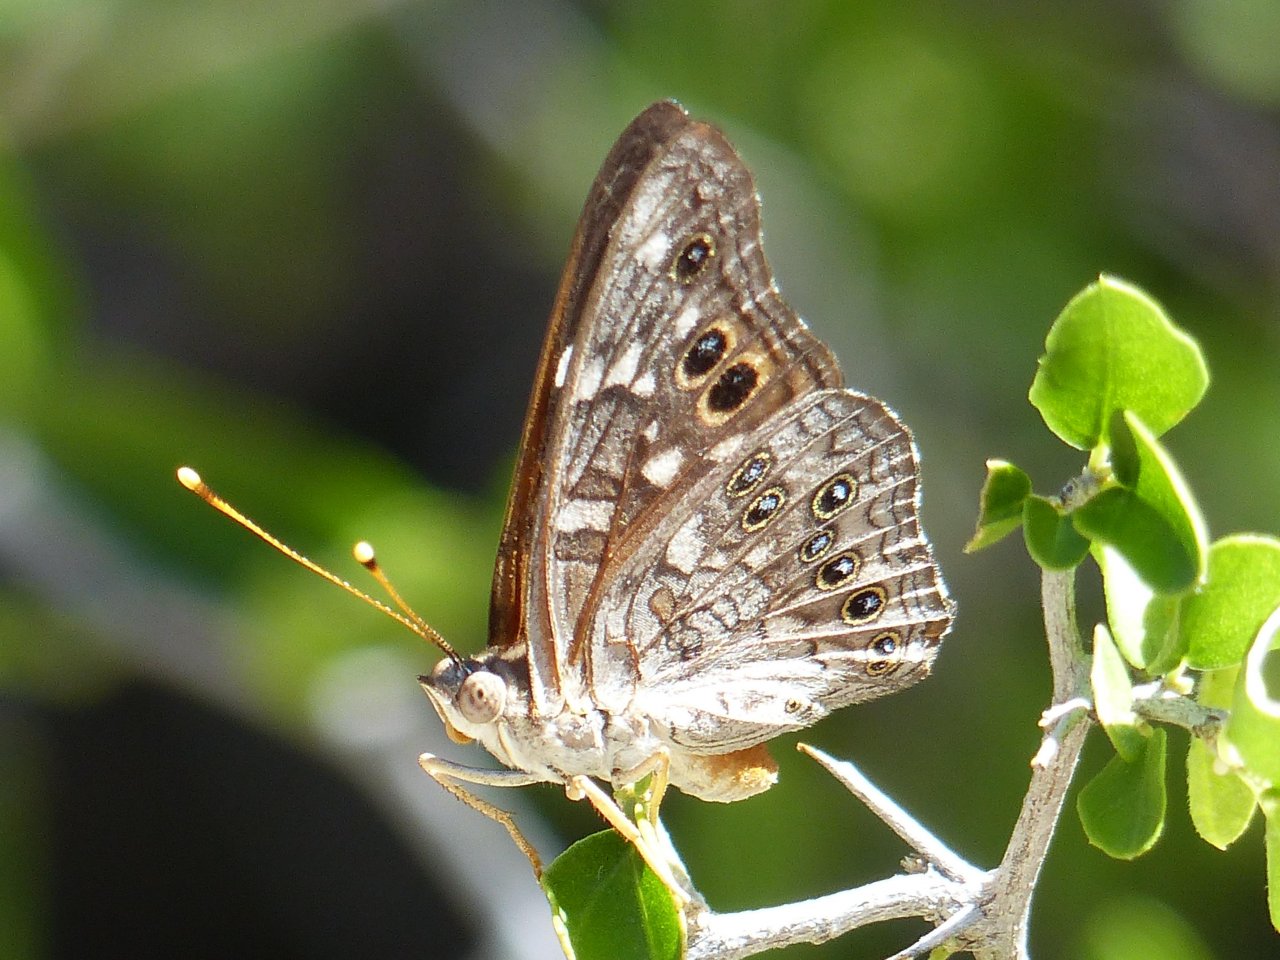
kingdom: Animalia
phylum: Arthropoda
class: Insecta
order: Lepidoptera
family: Nymphalidae
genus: Asterocampa
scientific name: Asterocampa leilia
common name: Empress Leilia
